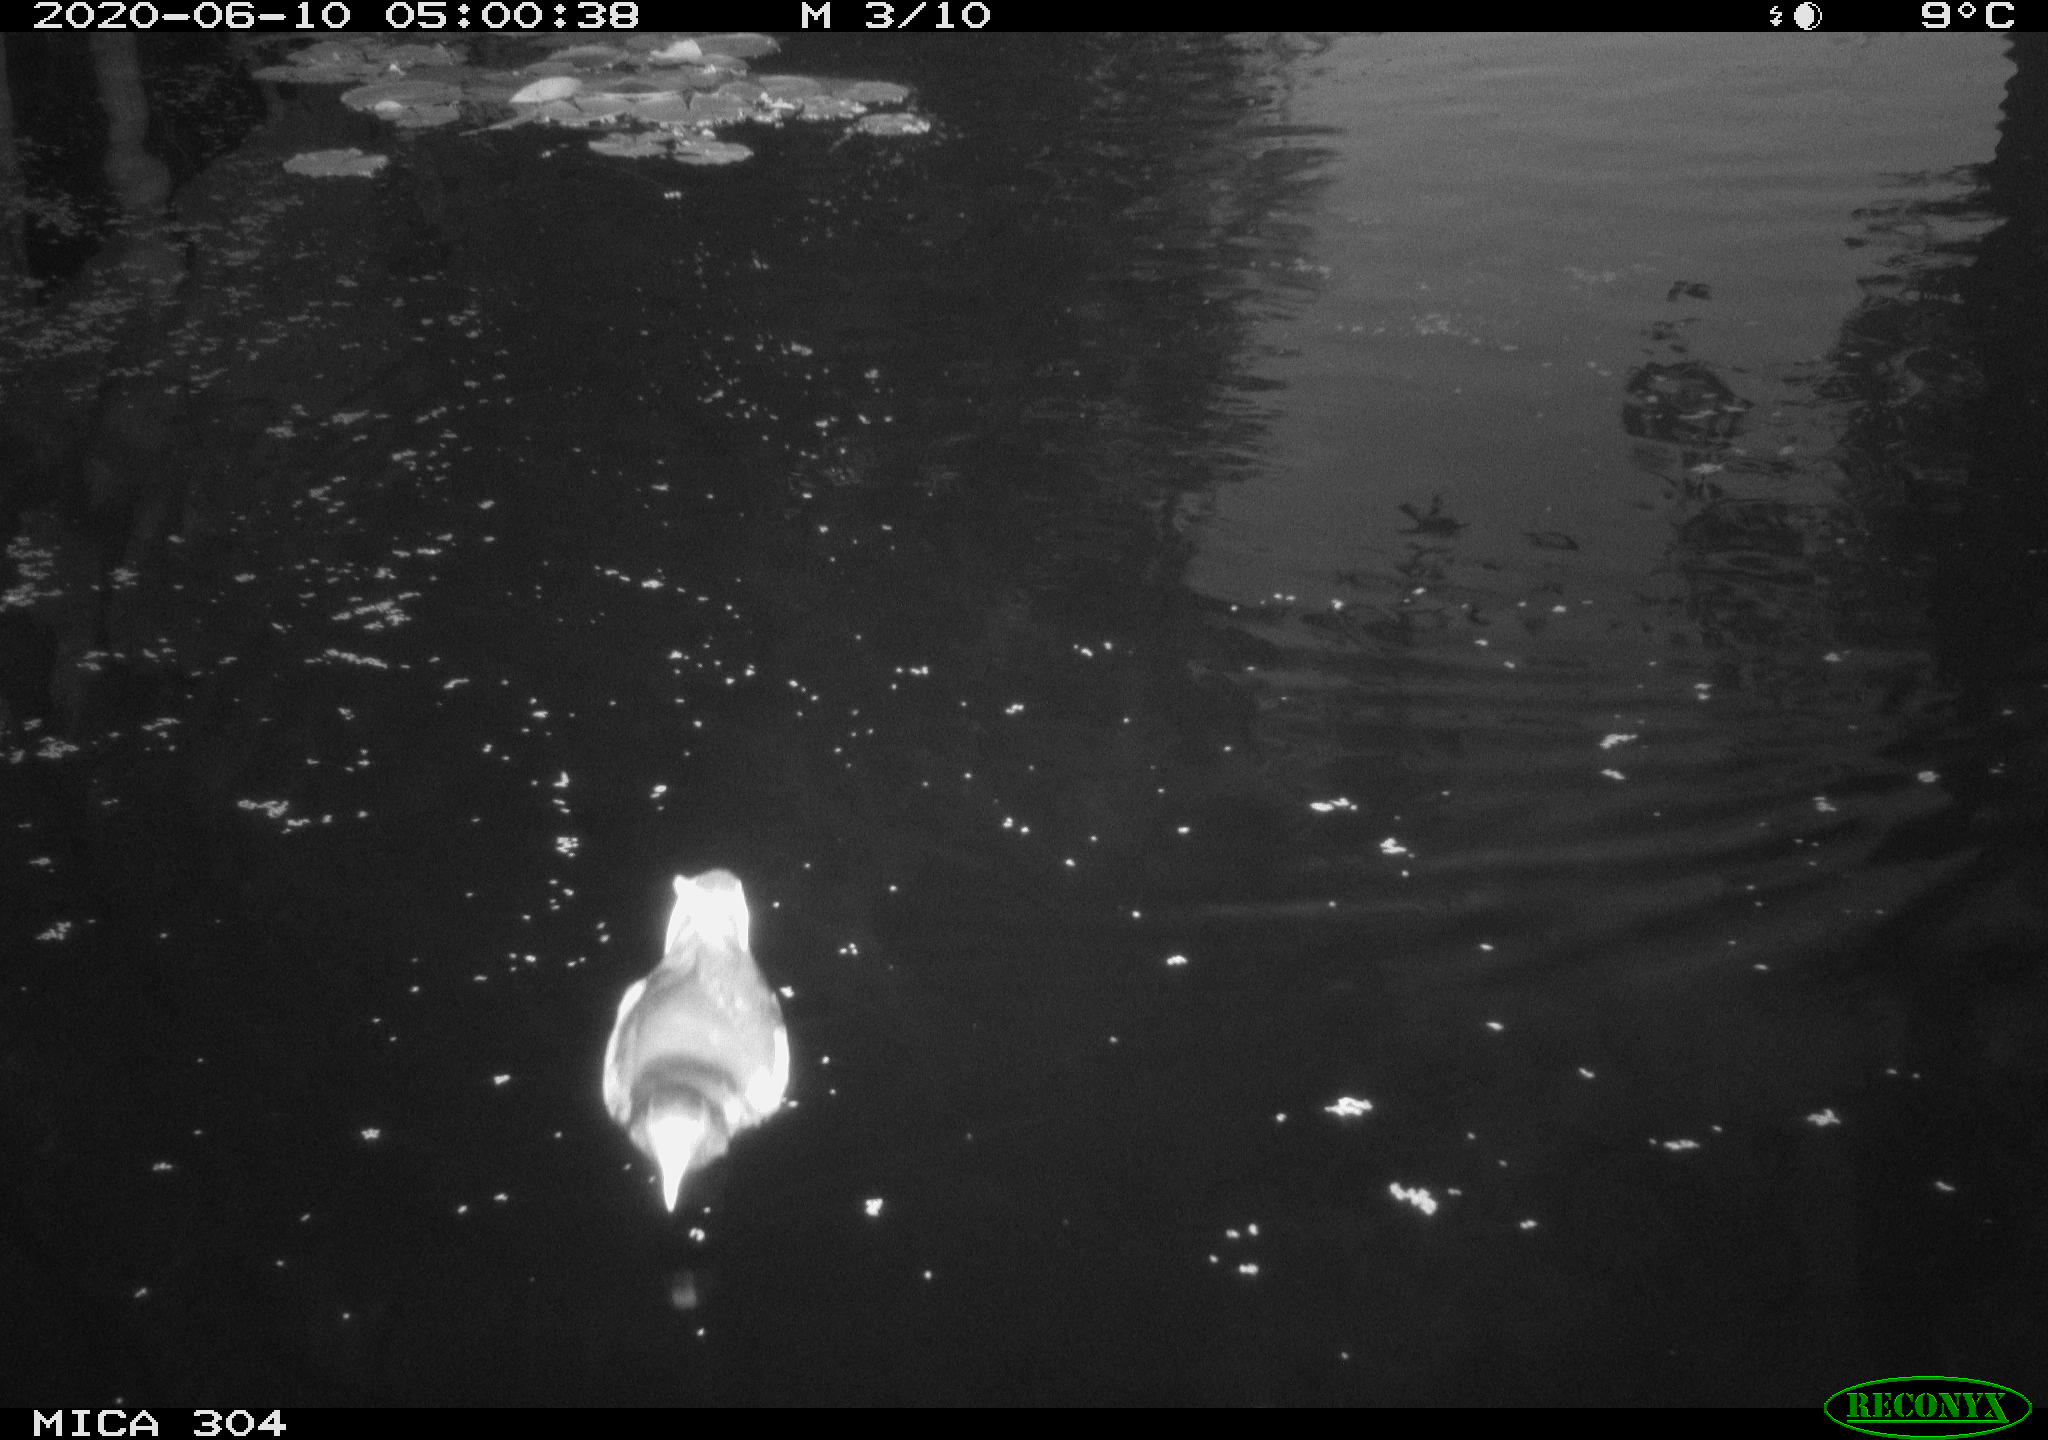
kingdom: Animalia
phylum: Chordata
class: Aves
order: Gruiformes
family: Rallidae
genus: Gallinula
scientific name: Gallinula chloropus
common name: Common moorhen
